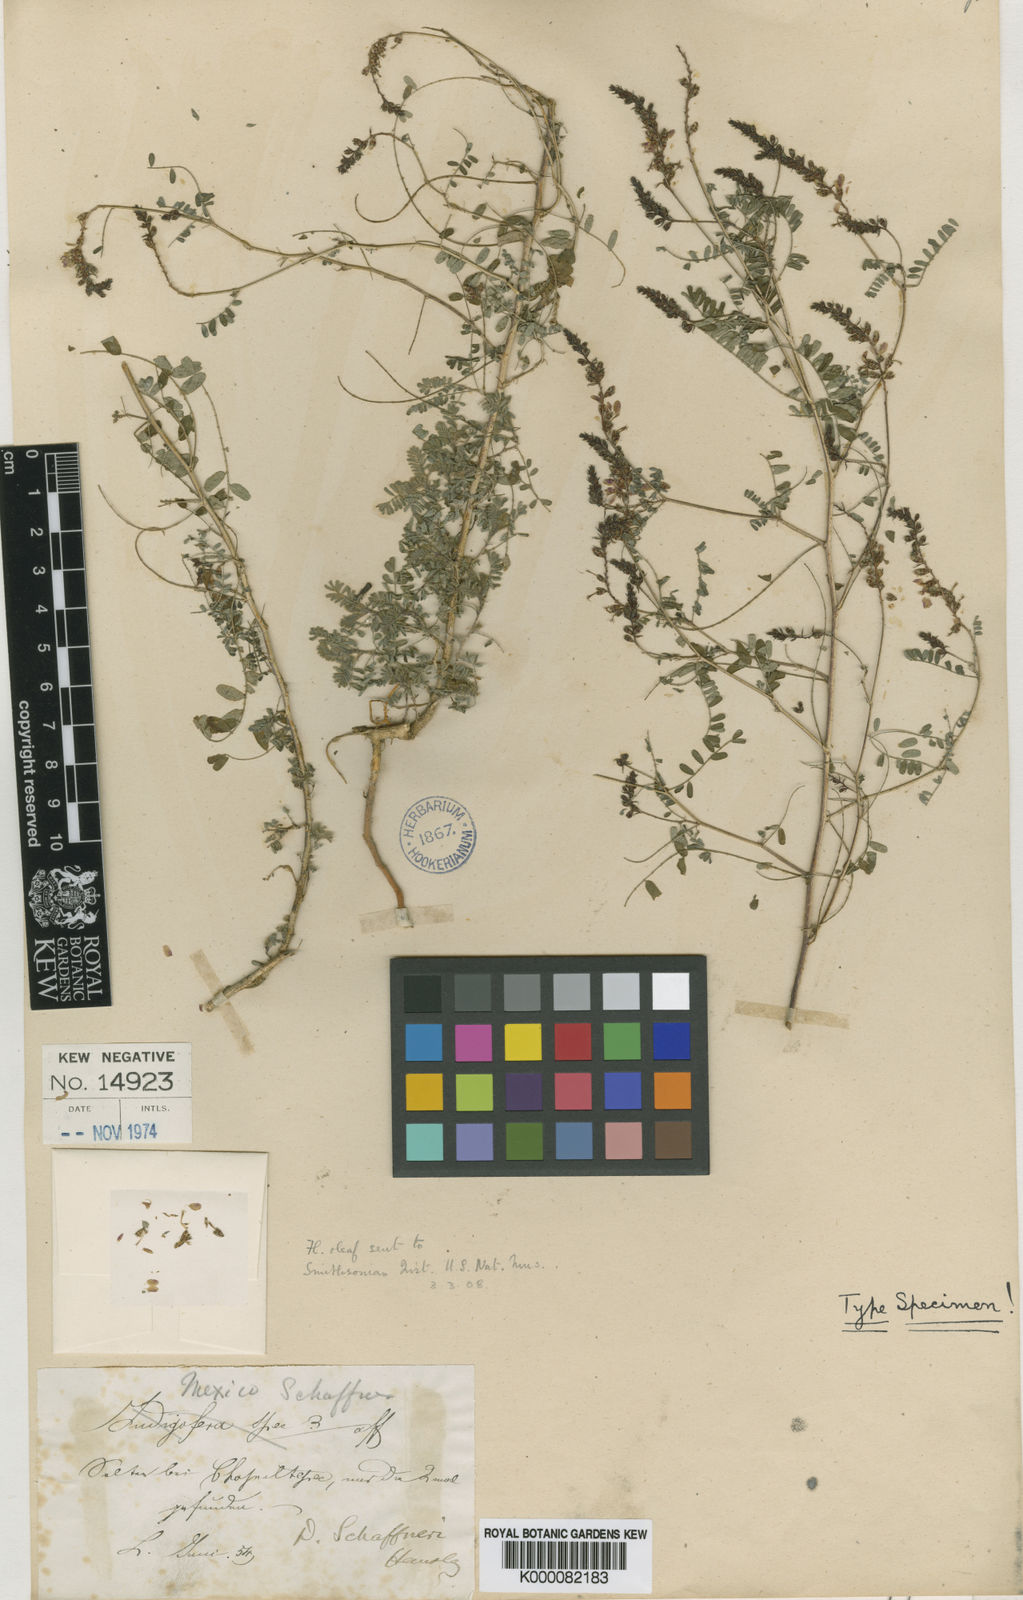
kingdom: Plantae
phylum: Tracheophyta
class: Magnoliopsida
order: Fabales
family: Fabaceae
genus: Dalea
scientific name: Dalea hegewischiana
